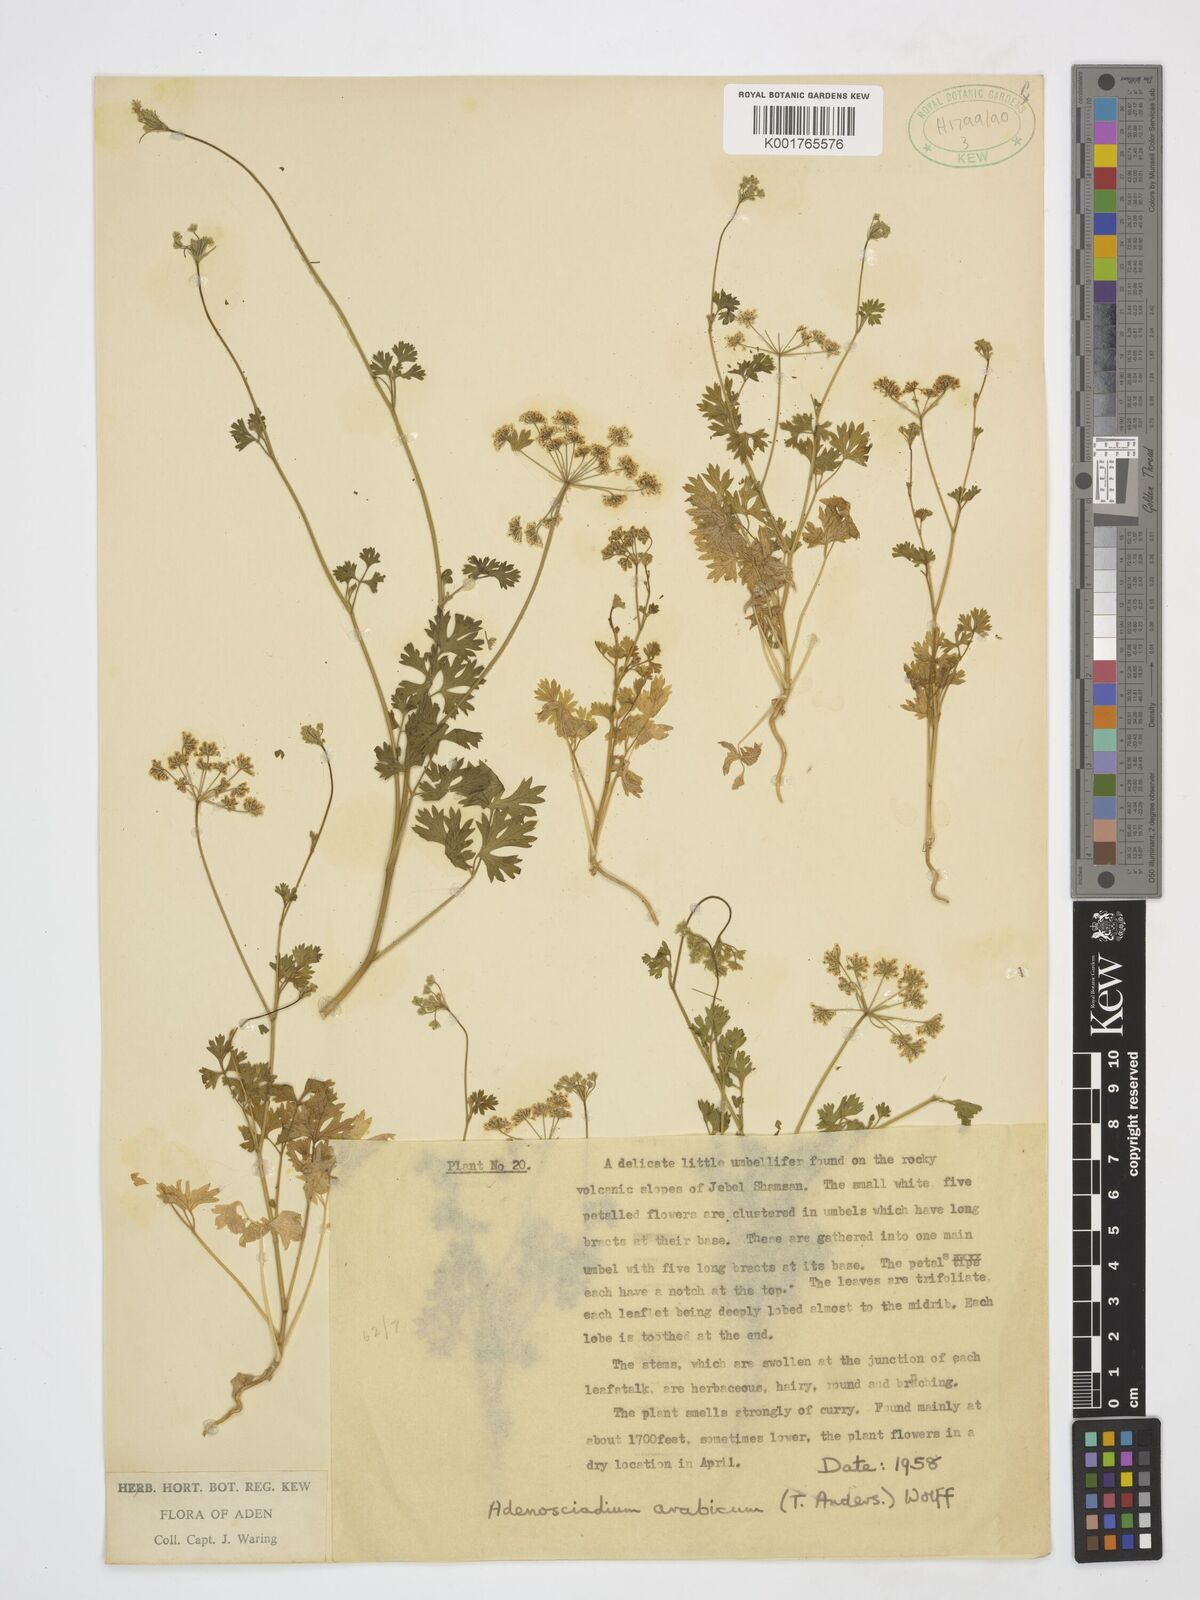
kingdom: Plantae
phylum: Tracheophyta
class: Magnoliopsida
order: Apiales
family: Apiaceae
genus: Adenosciadium
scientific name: Adenosciadium arabicum
